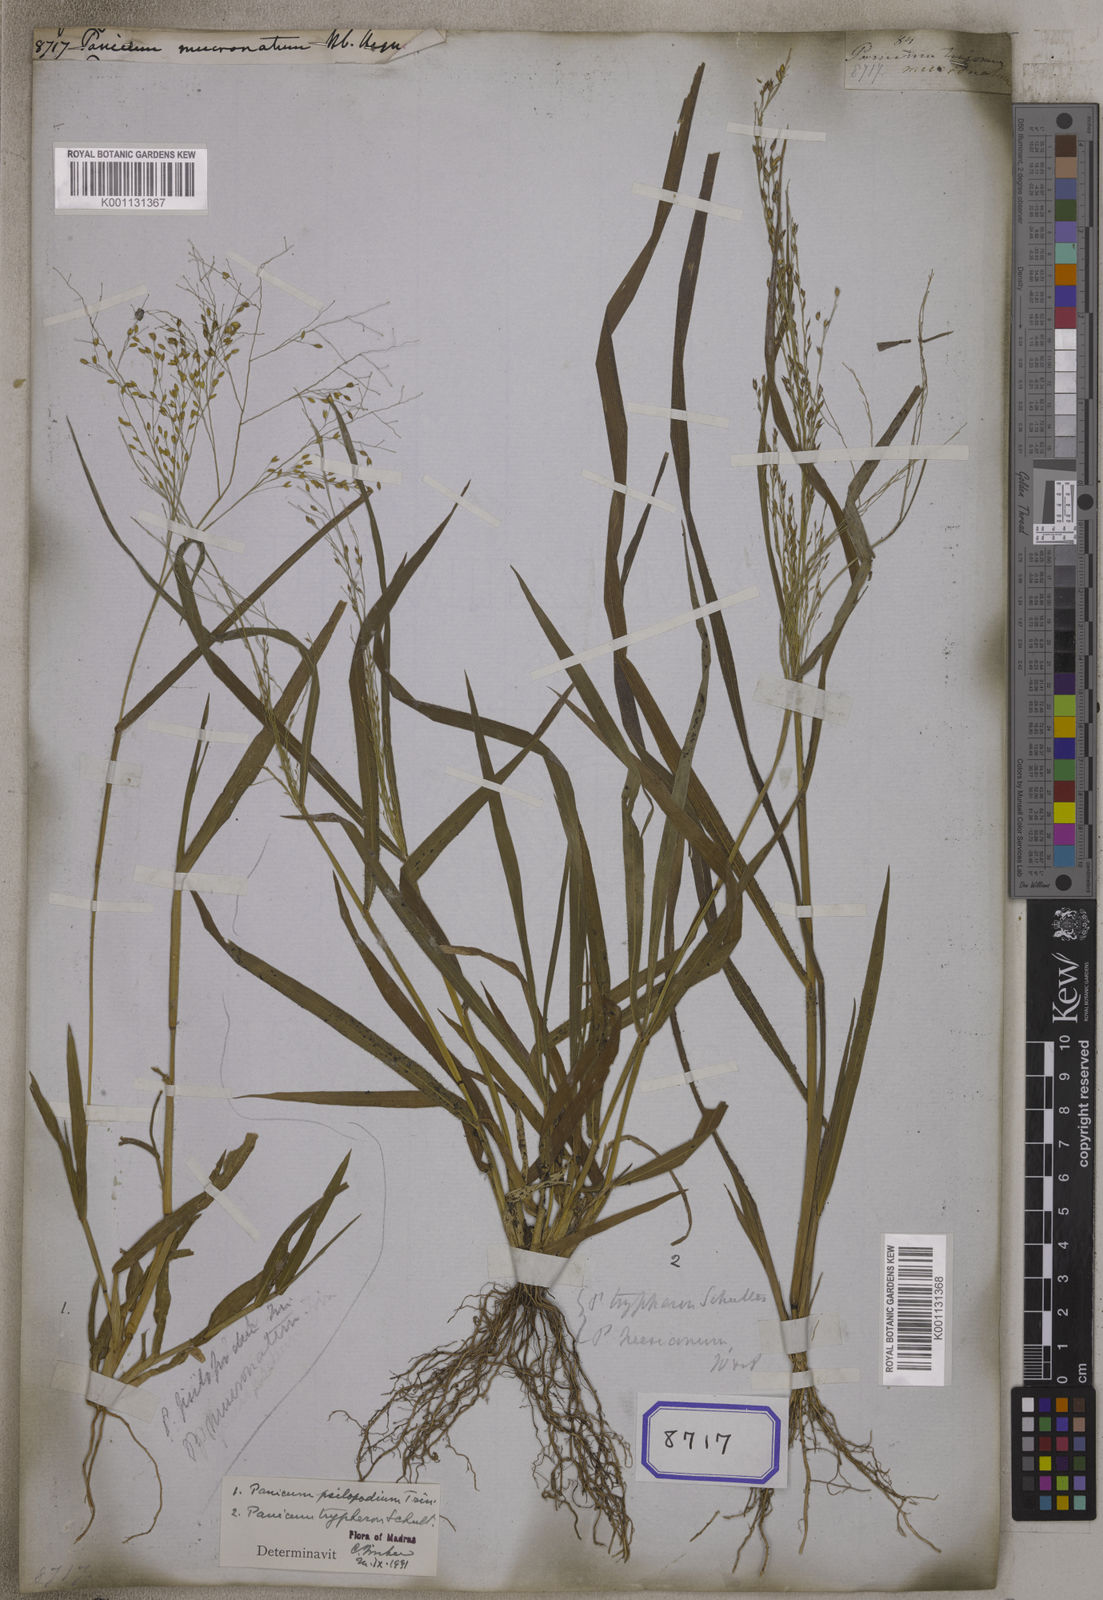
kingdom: Plantae
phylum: Tracheophyta
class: Liliopsida
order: Poales
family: Poaceae
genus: Panicum
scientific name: Panicum
